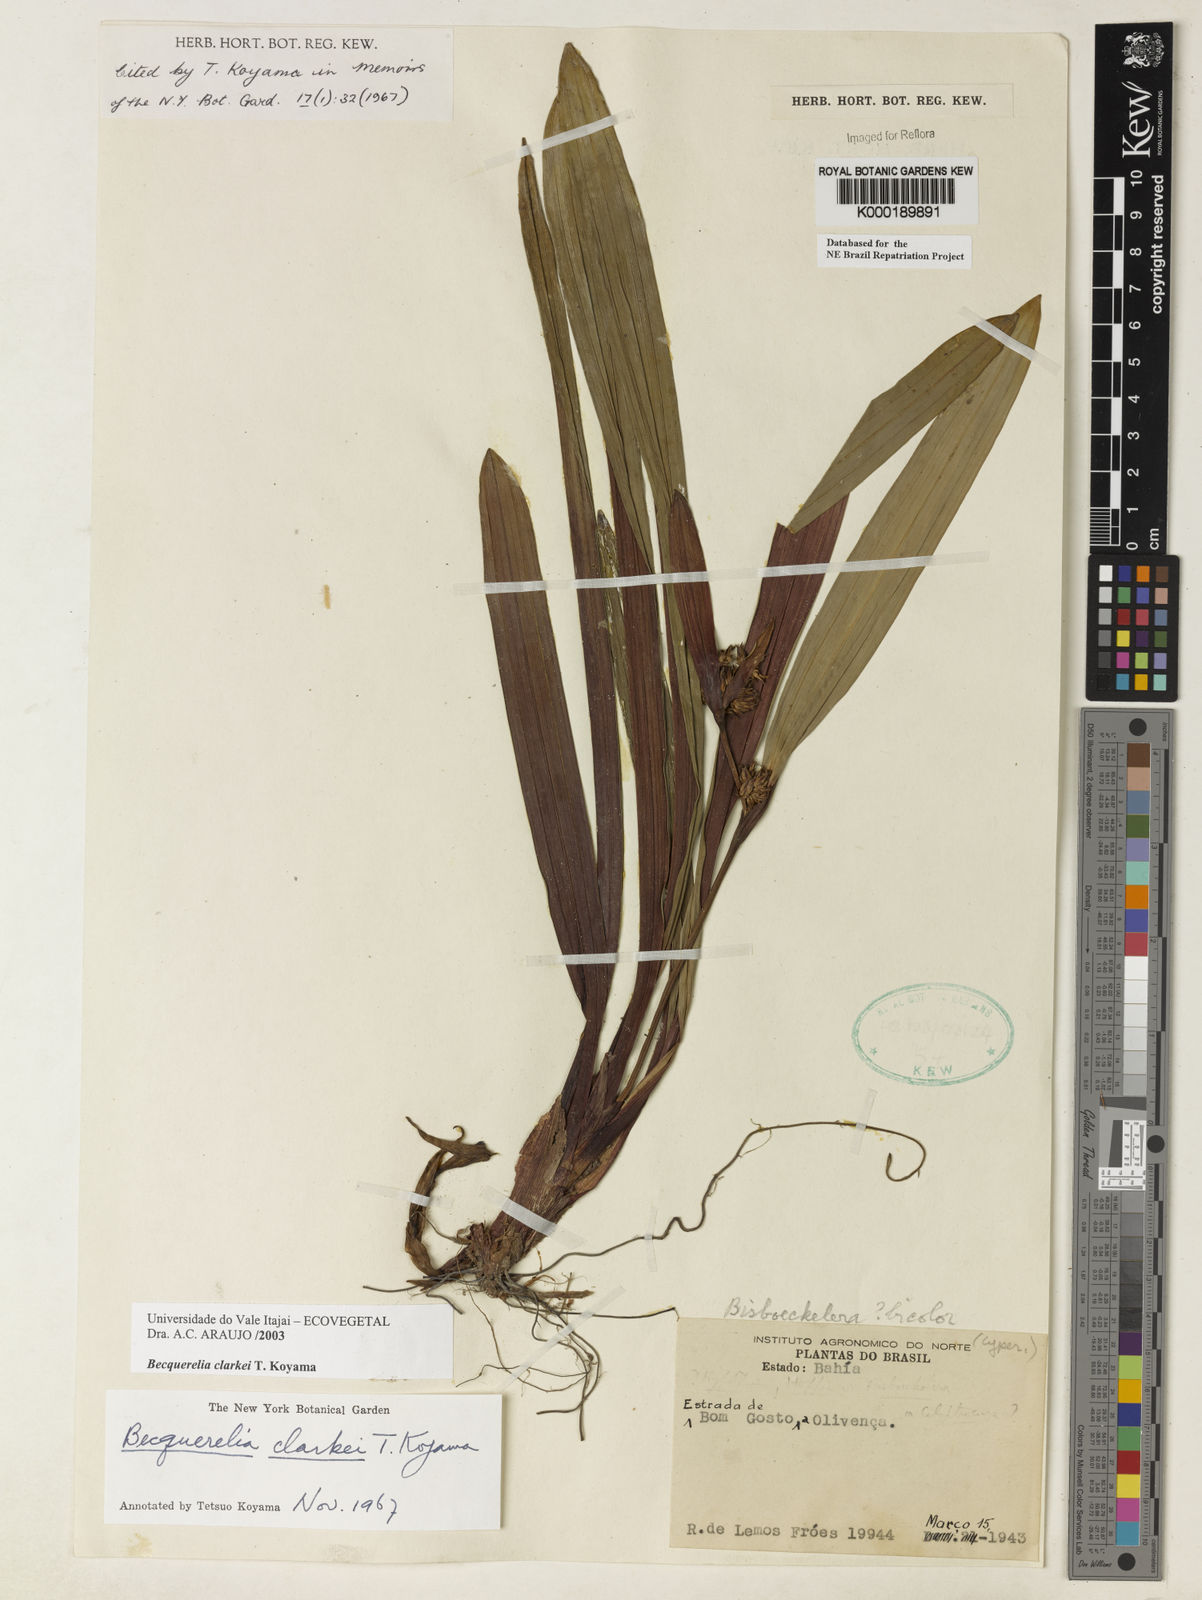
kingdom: Plantae
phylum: Tracheophyta
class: Liliopsida
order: Poales
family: Cyperaceae
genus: Becquerelia
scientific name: Becquerelia clarkei
